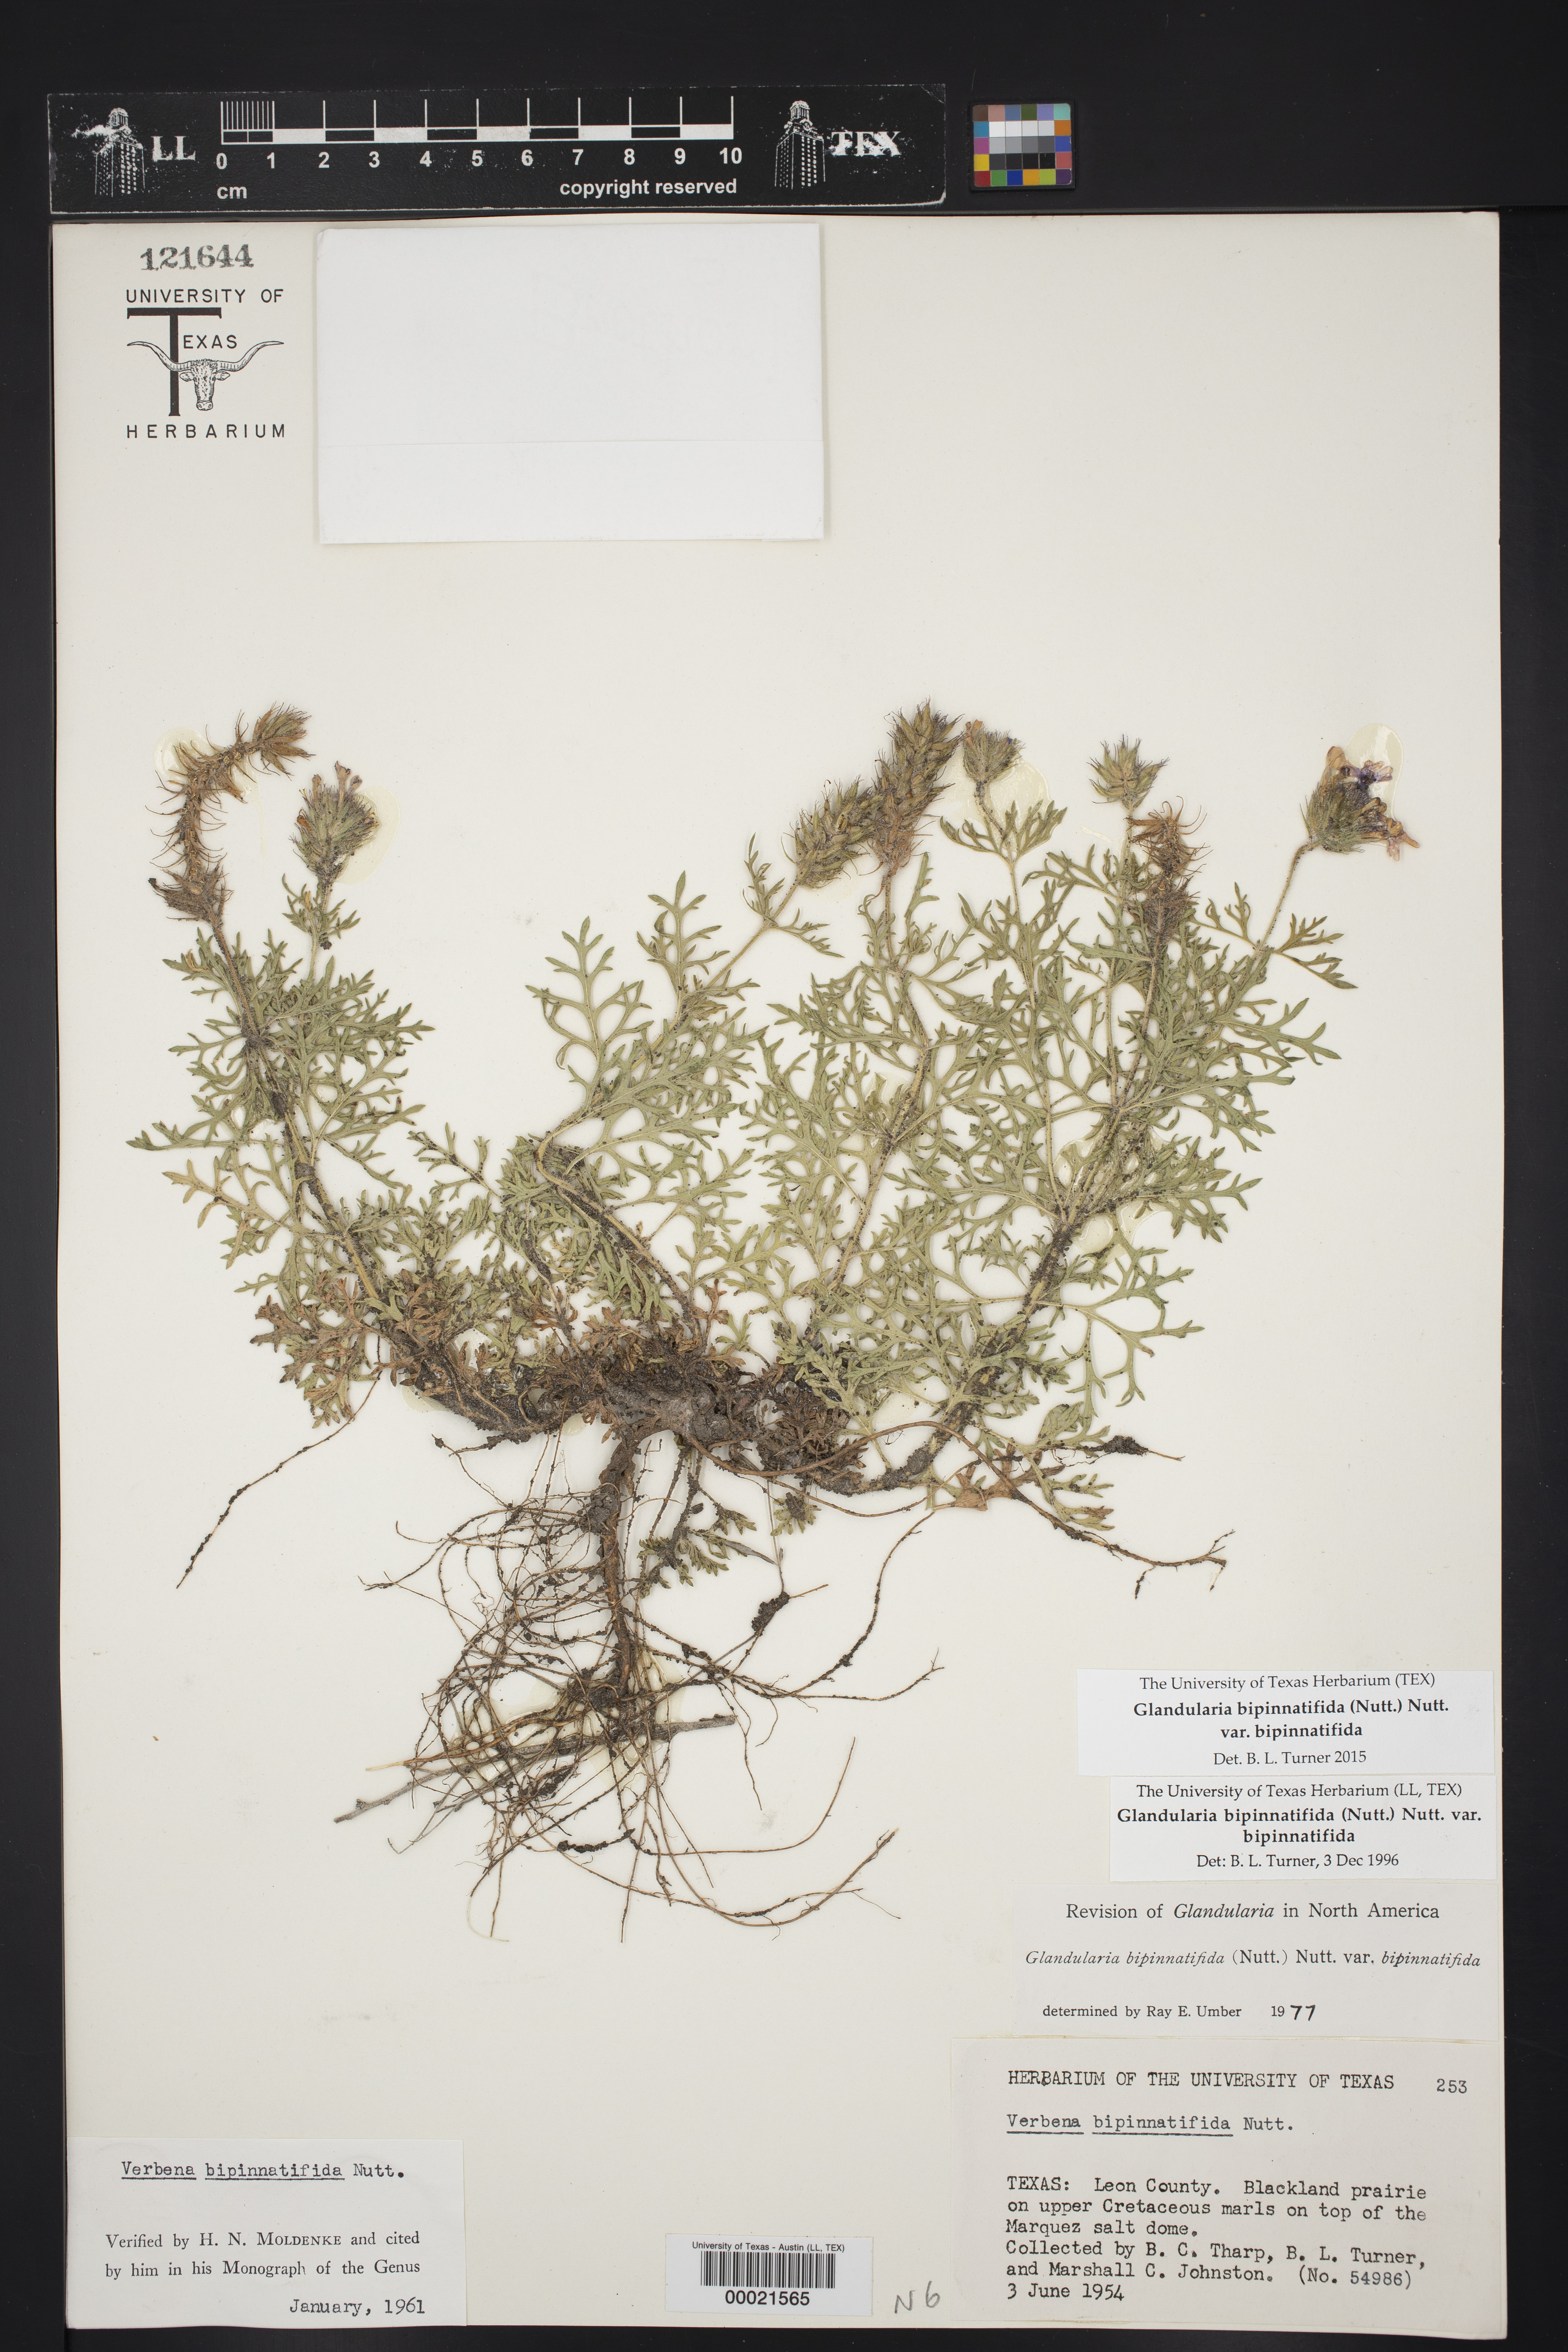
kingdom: Plantae
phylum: Tracheophyta
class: Magnoliopsida
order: Lamiales
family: Verbenaceae
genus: Verbena
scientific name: Verbena bipinnatifida
